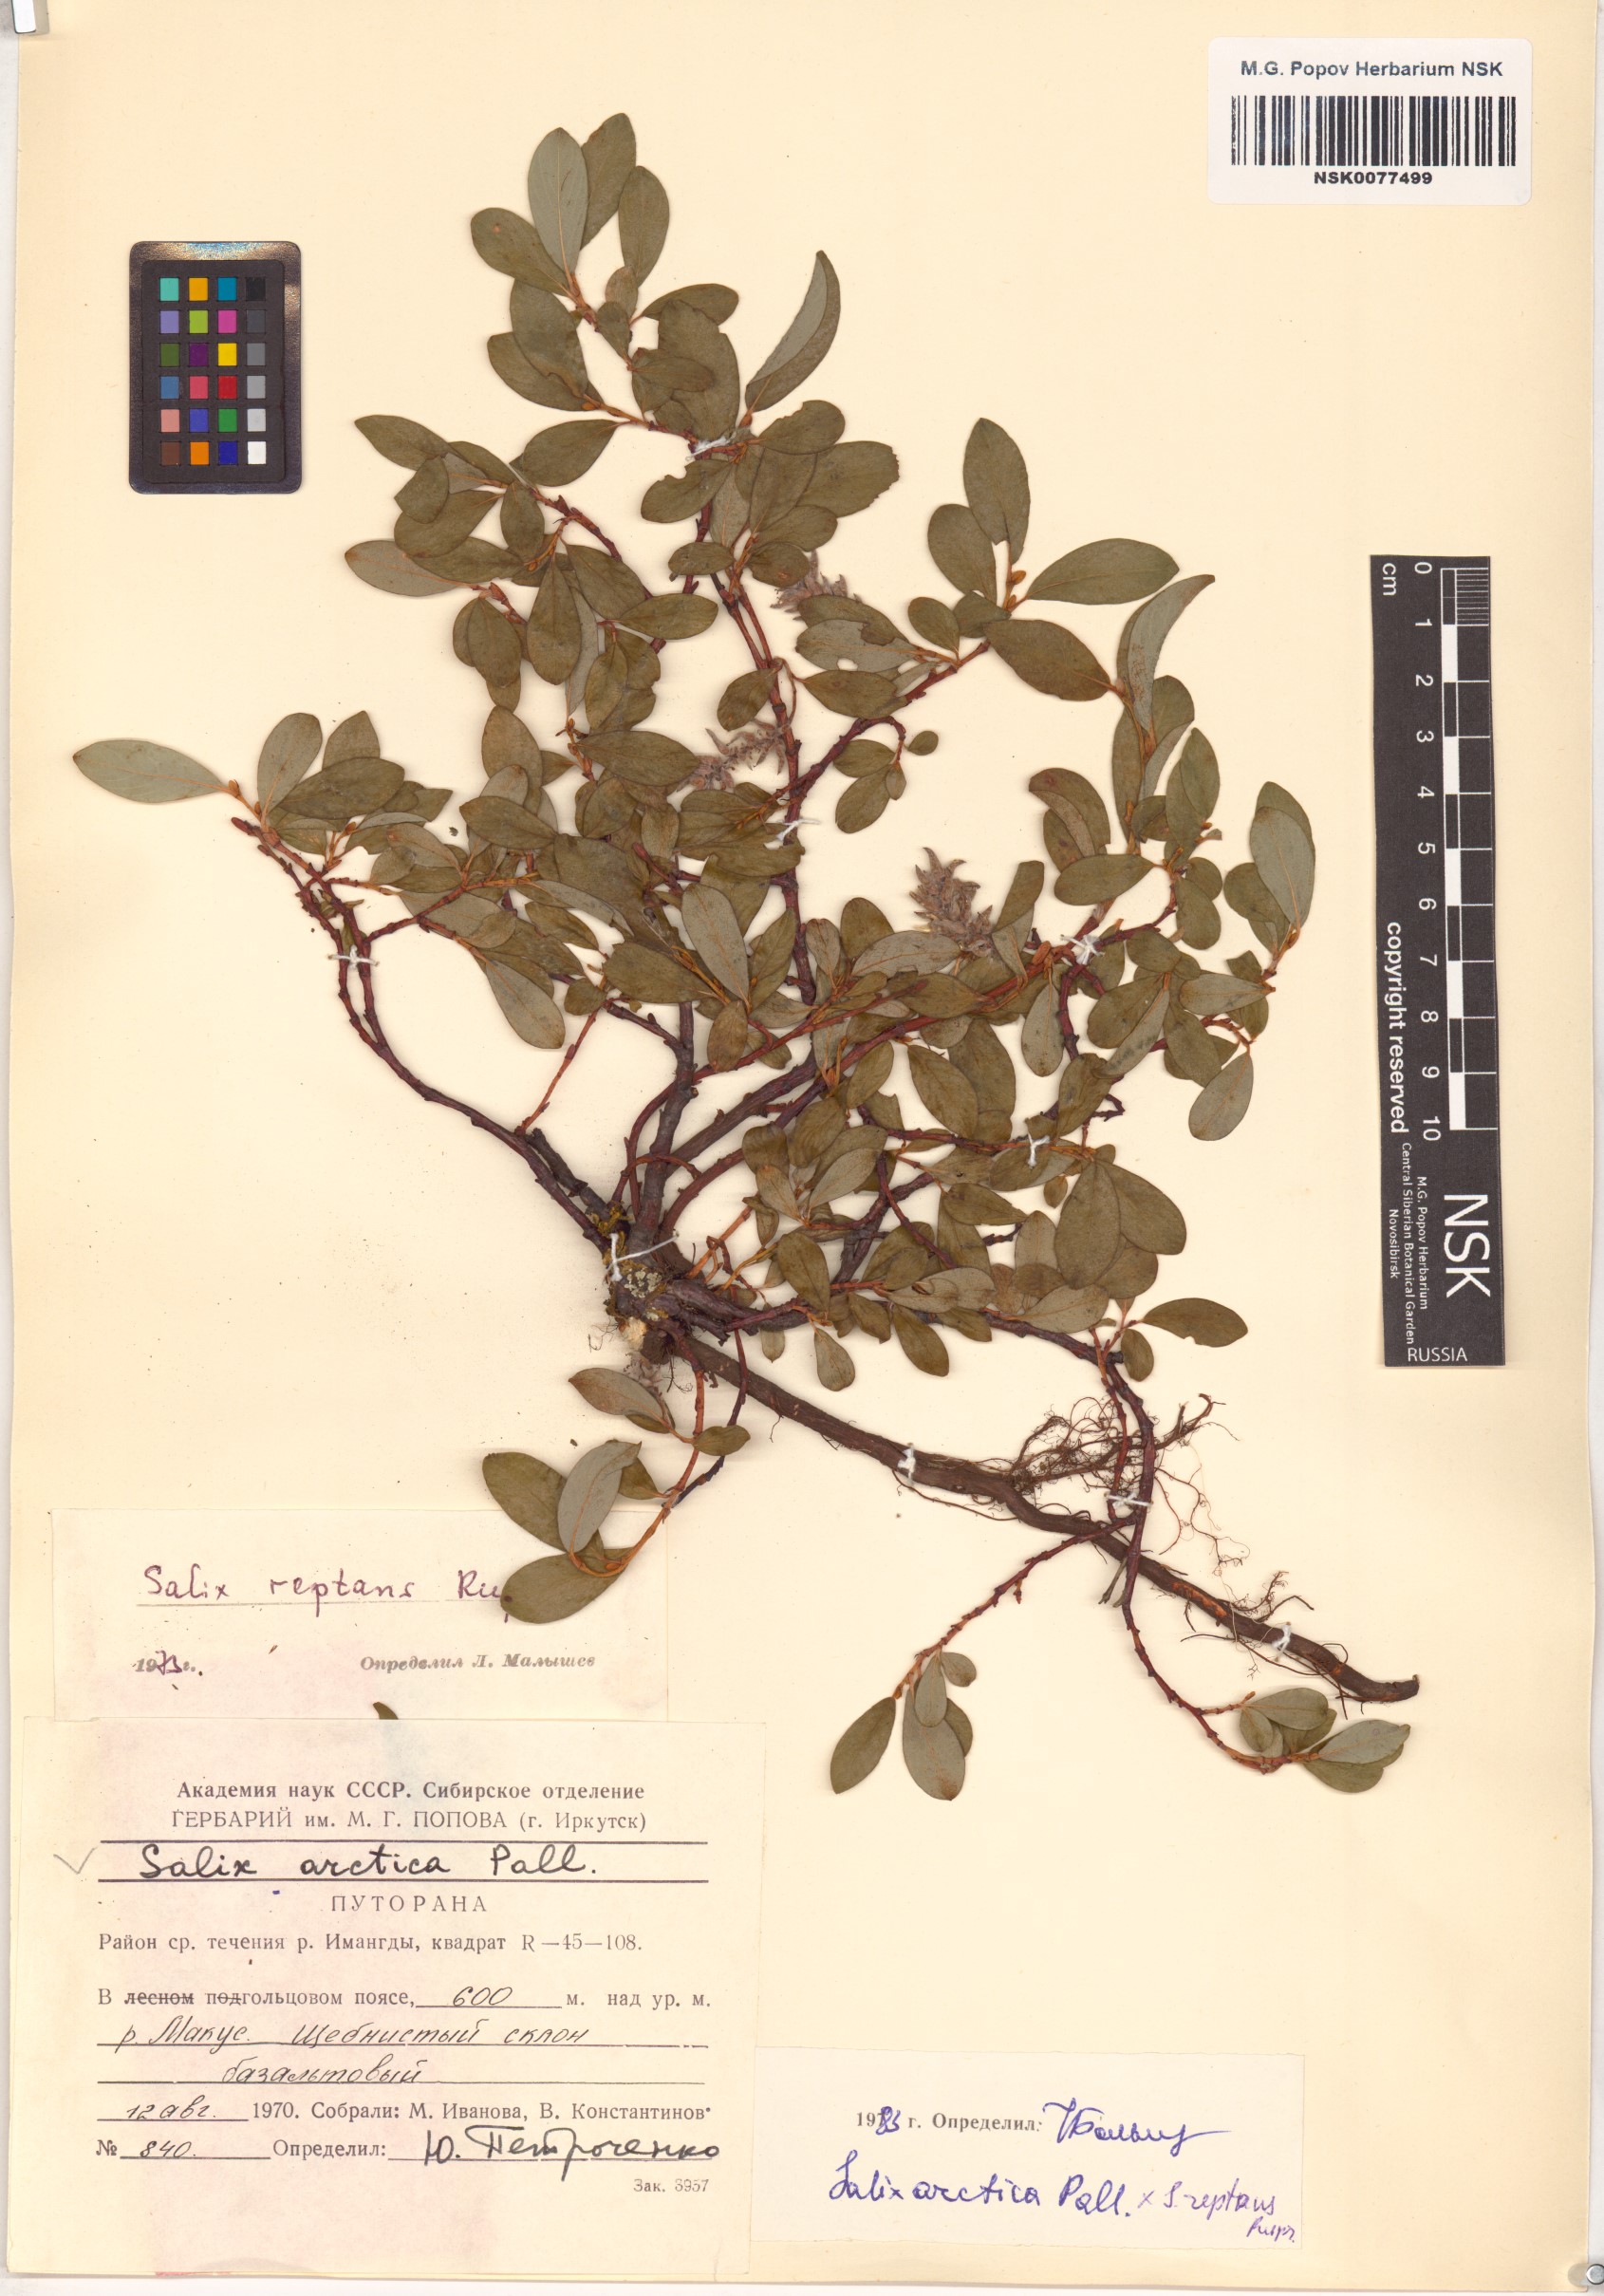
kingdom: Plantae
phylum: Tracheophyta
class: Magnoliopsida
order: Malpighiales
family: Salicaceae
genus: Salix
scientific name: Salix
